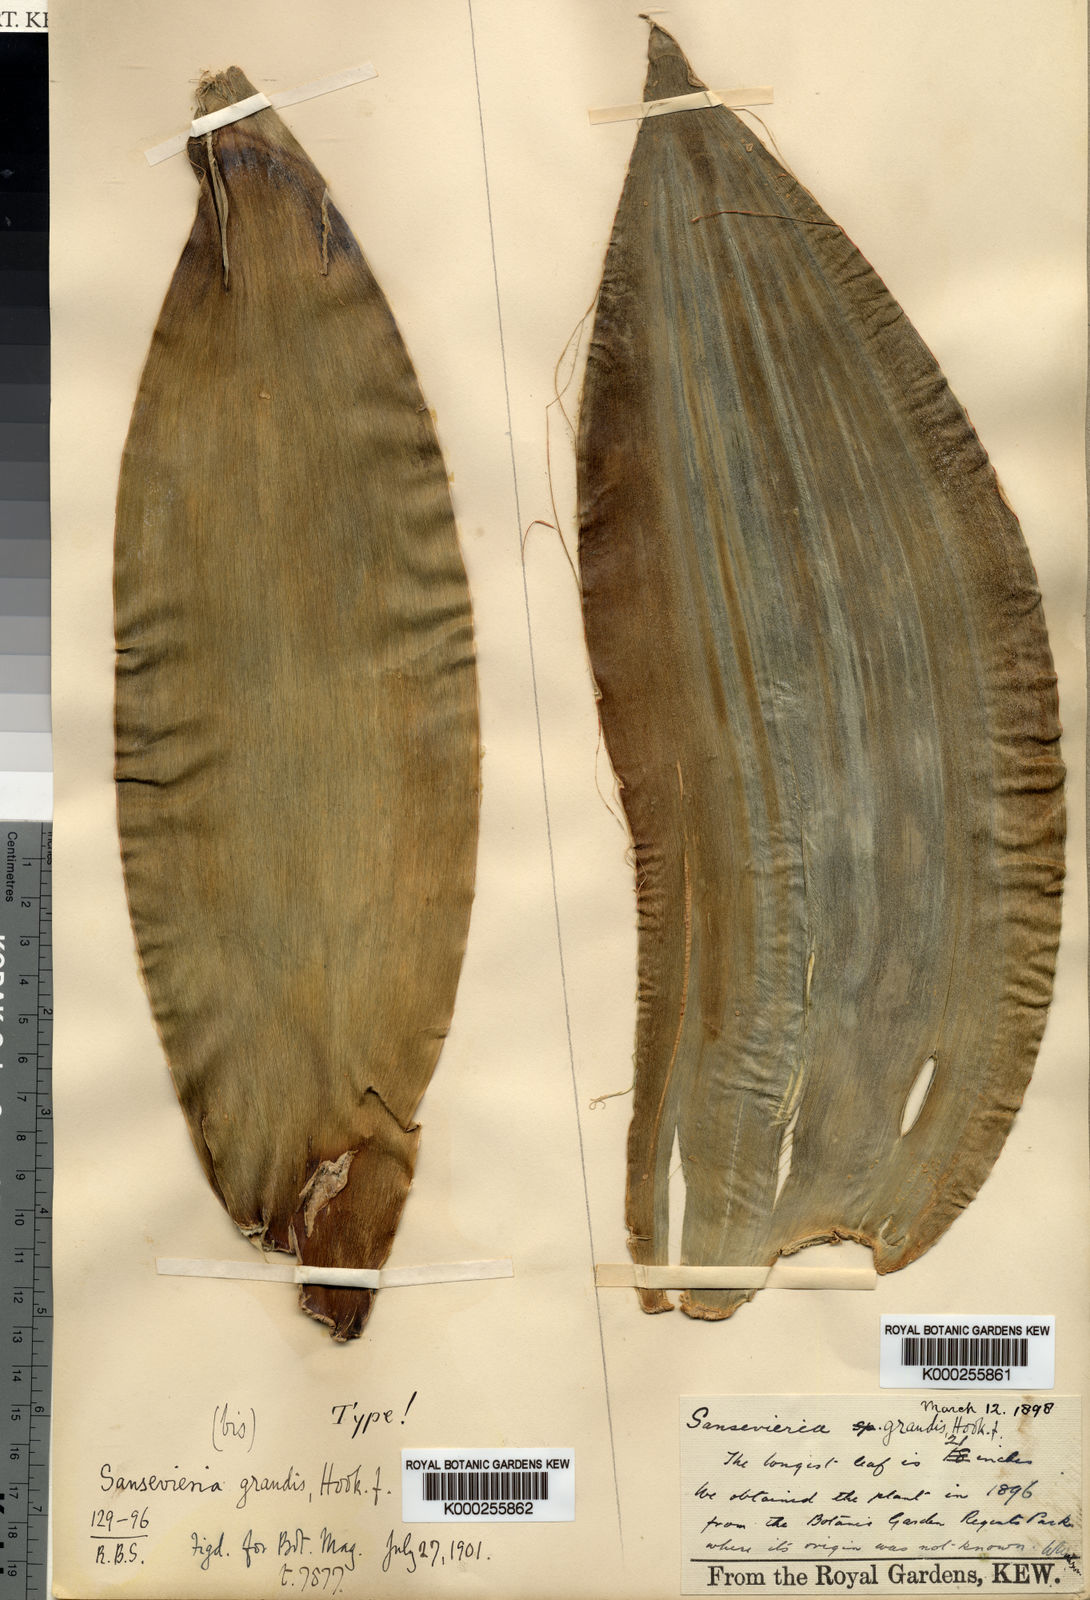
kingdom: Plantae
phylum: Tracheophyta
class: Liliopsida
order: Asparagales
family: Asparagaceae
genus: Dracaena
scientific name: Dracaena hyacinthoides
